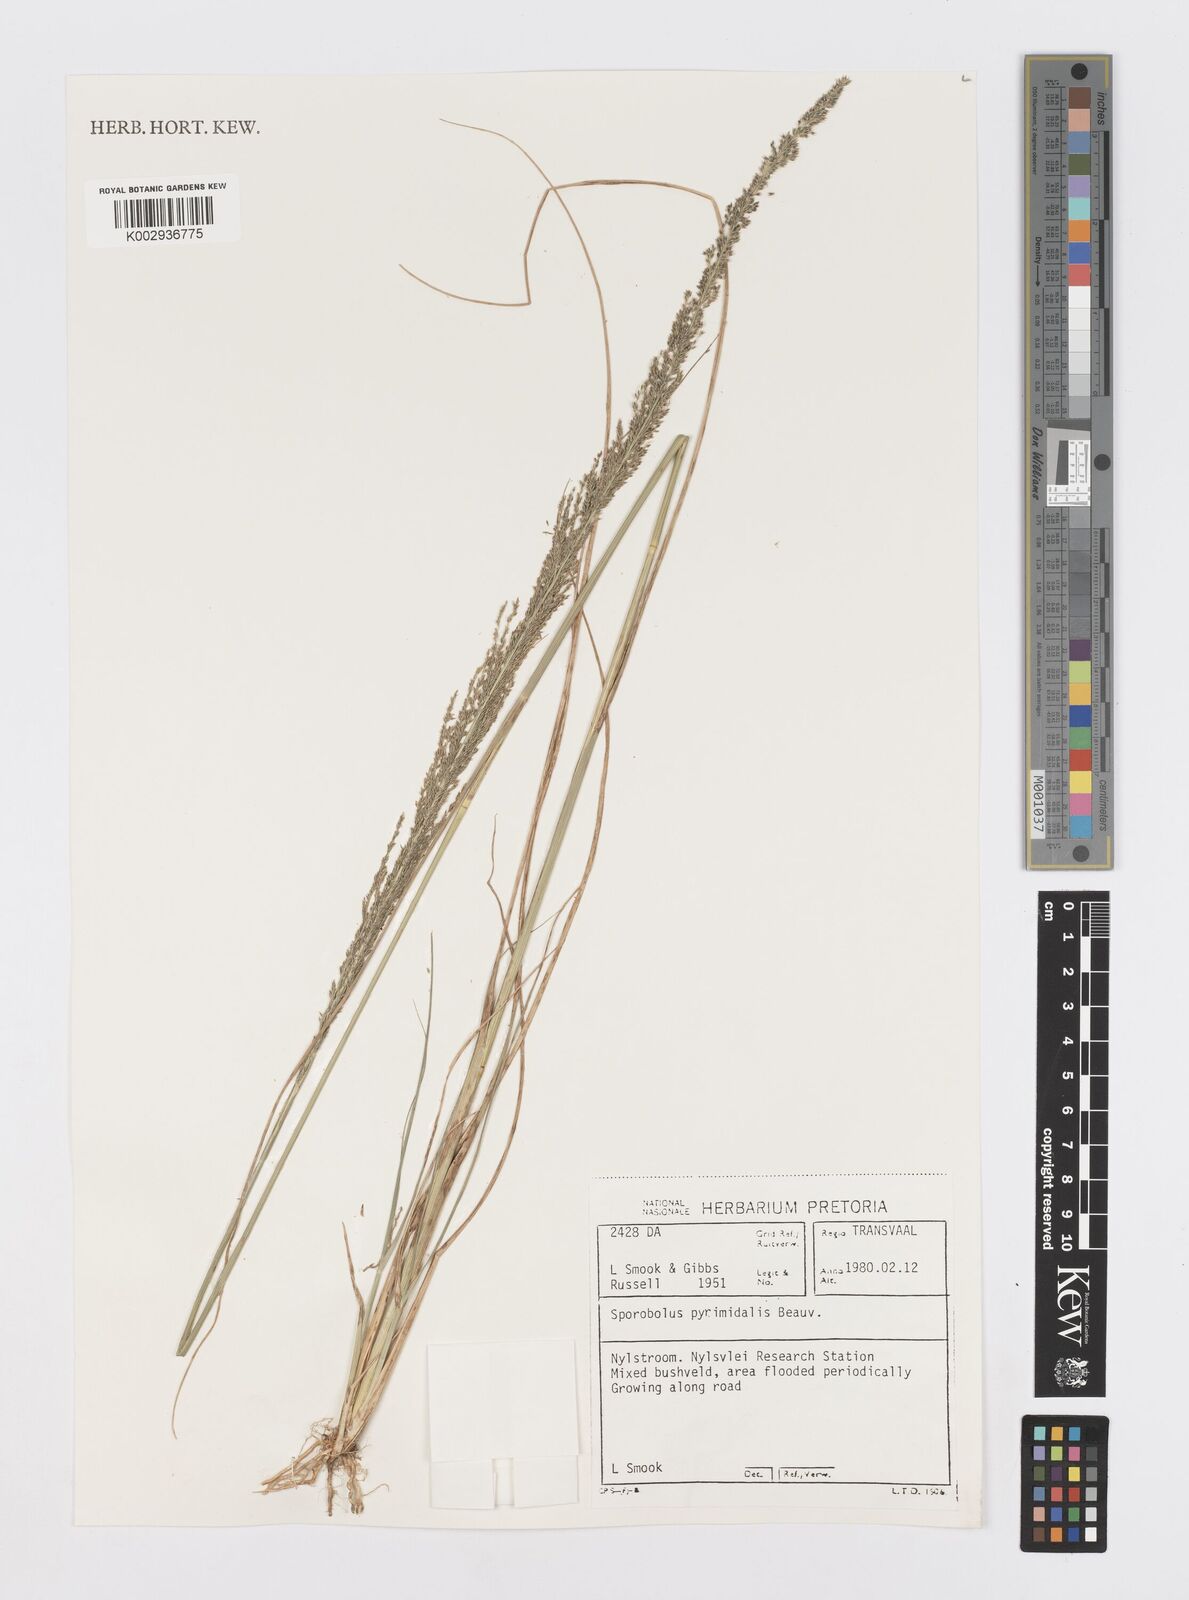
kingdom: Plantae
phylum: Tracheophyta
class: Liliopsida
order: Poales
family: Poaceae
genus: Sporobolus
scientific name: Sporobolus pyramidalis
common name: West indian dropseed
